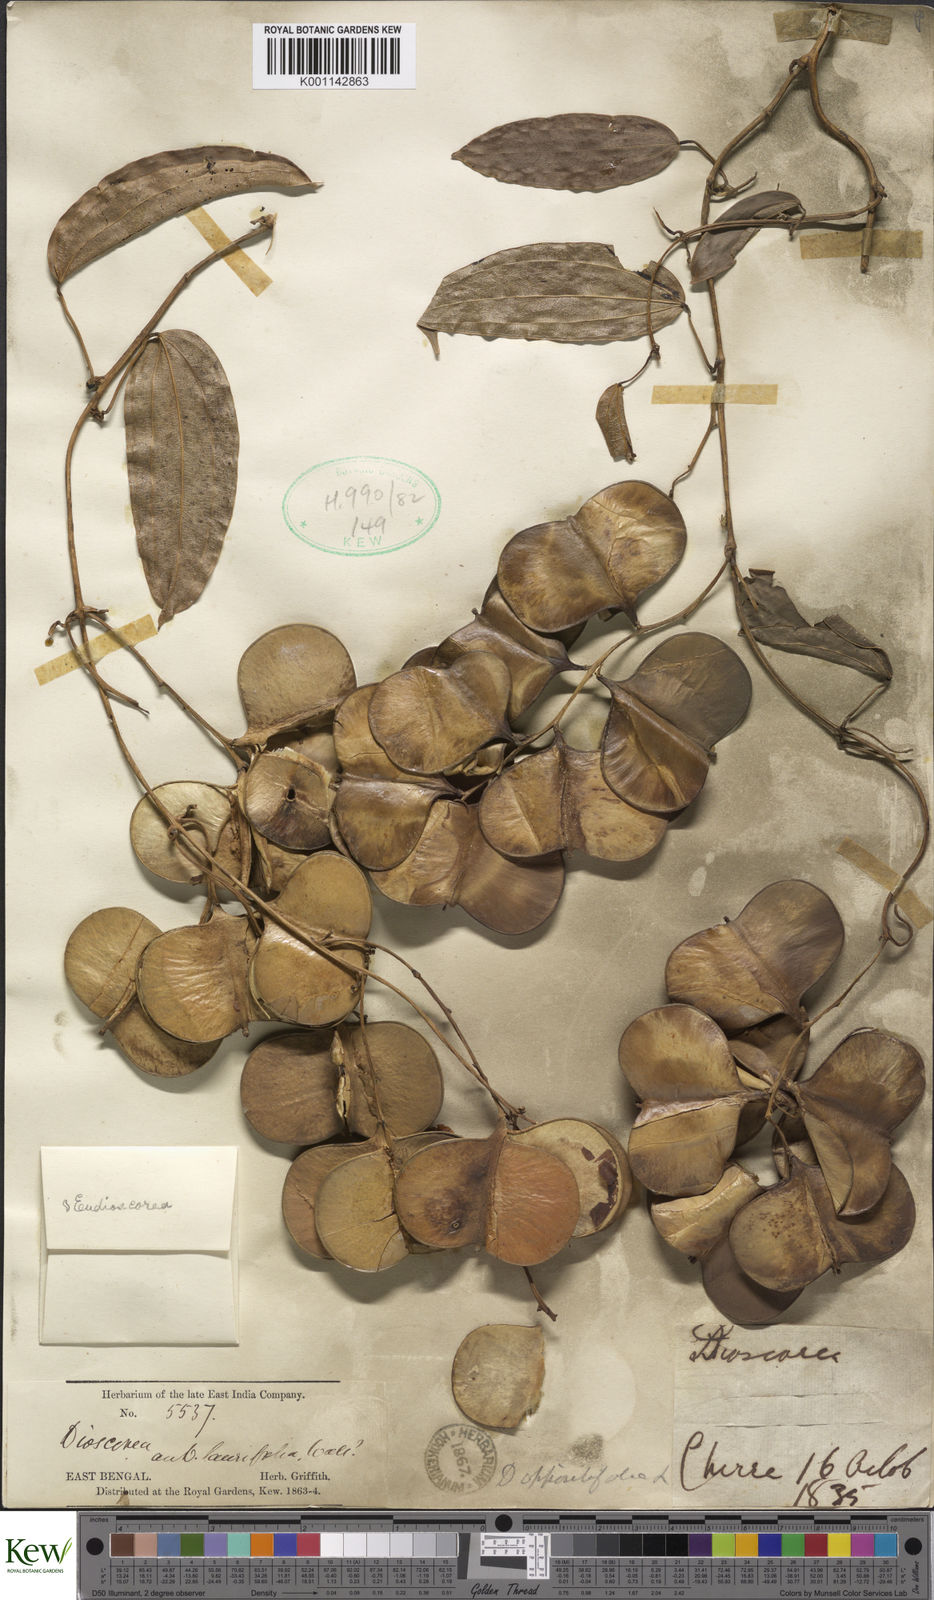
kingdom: Plantae
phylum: Tracheophyta
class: Liliopsida
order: Dioscoreales
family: Dioscoreaceae
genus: Dioscorea
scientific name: Dioscorea oppositifolia
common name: Chinese yam
